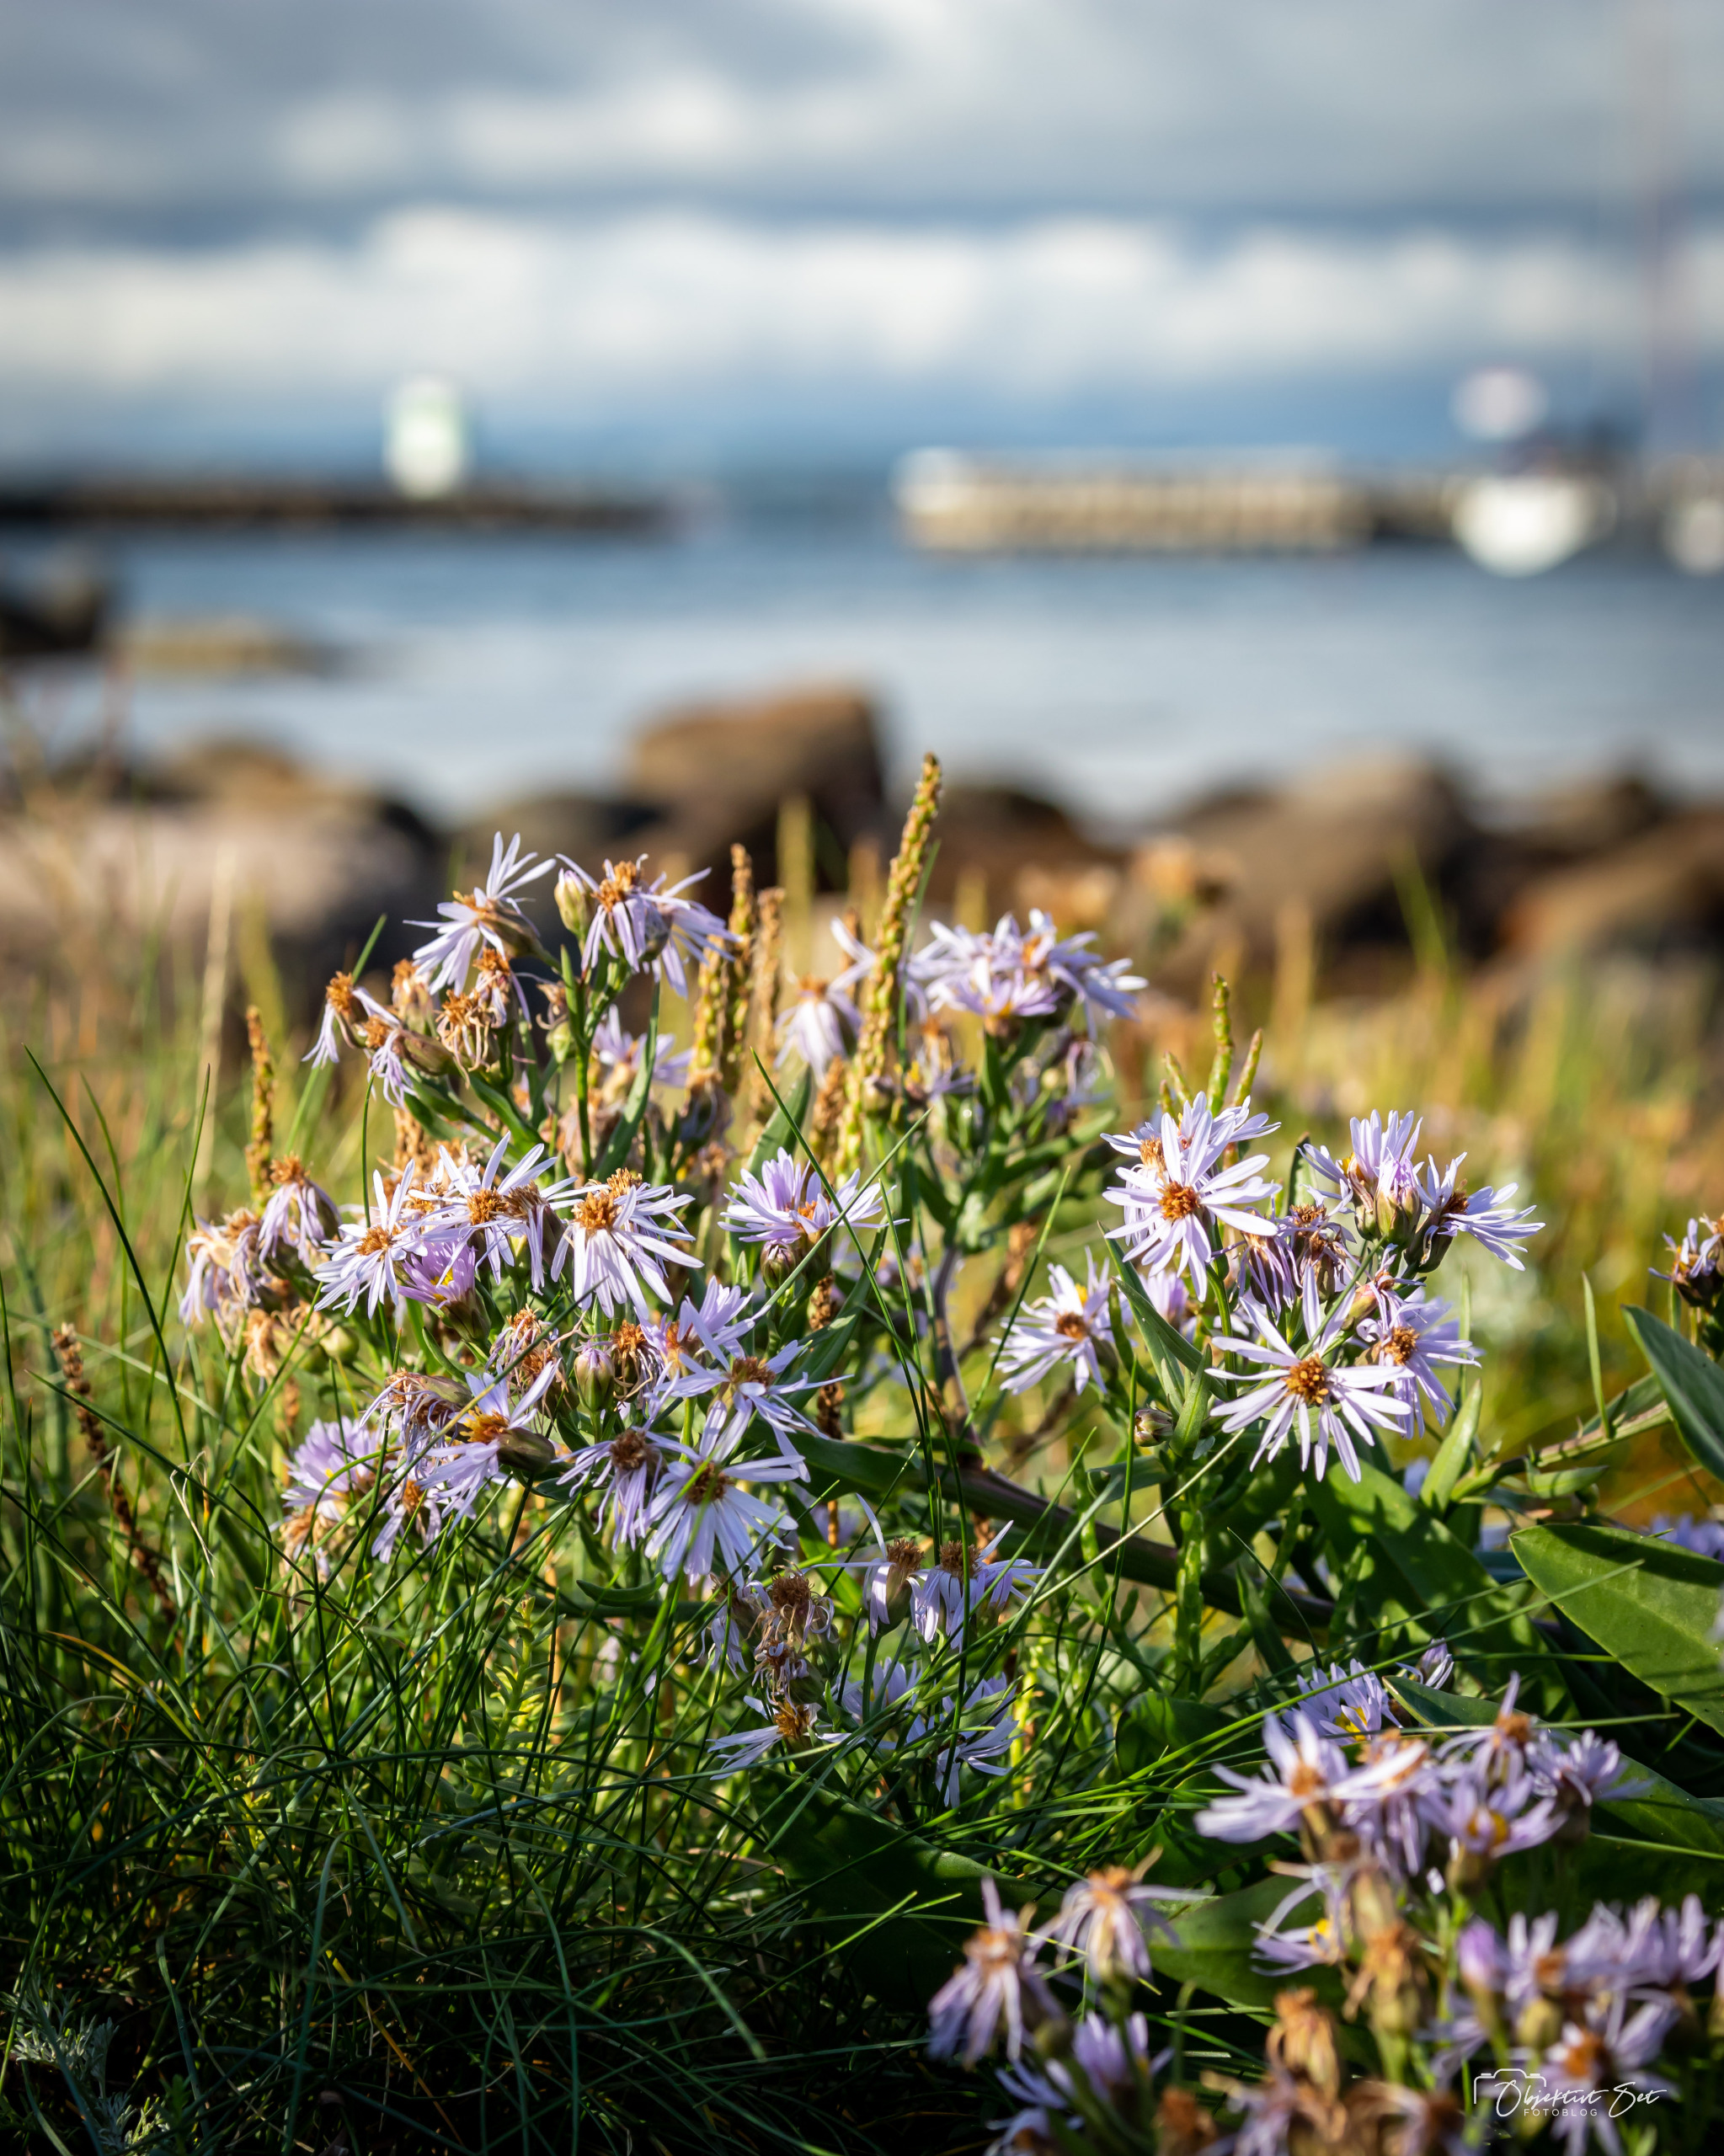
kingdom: Plantae
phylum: Tracheophyta
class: Magnoliopsida
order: Asterales
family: Asteraceae
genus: Tripolium
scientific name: Tripolium pannonicum
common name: Strandasters
